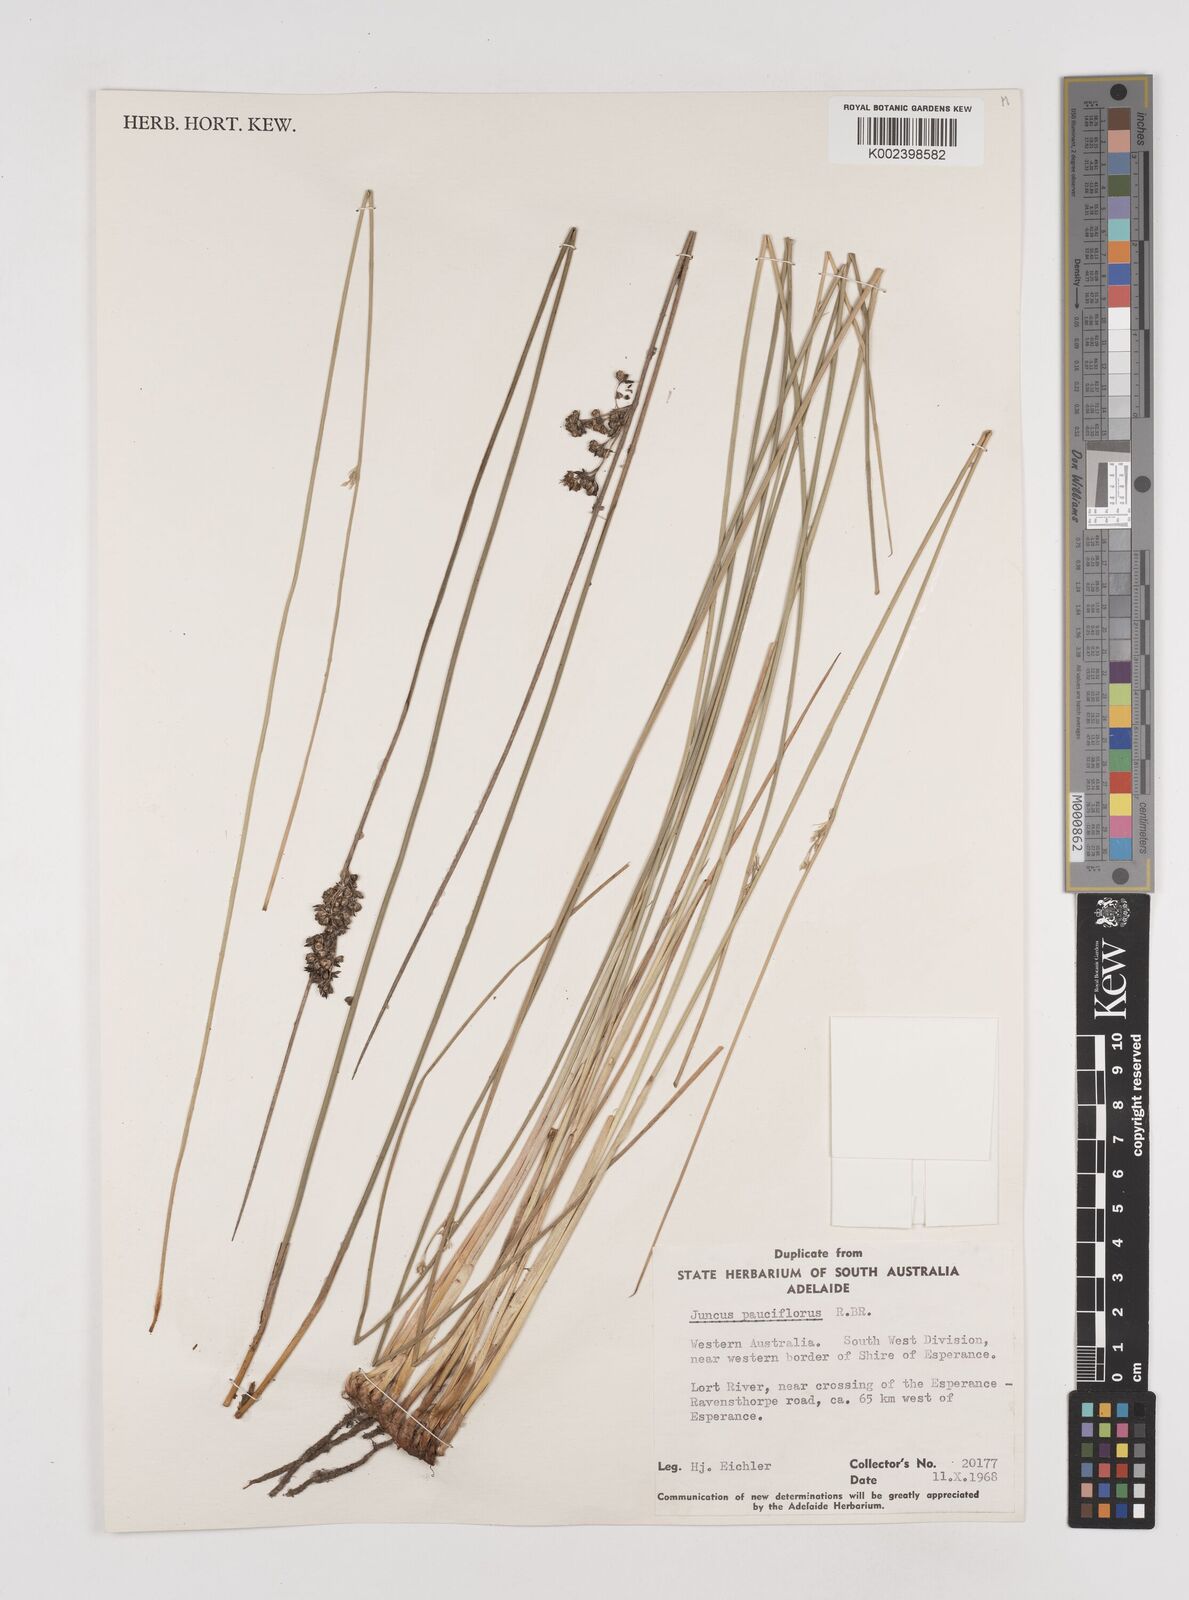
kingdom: Plantae
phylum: Tracheophyta
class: Liliopsida
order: Poales
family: Juncaceae
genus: Juncus
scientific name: Juncus pauciflorus
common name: Loose-flowered rush
